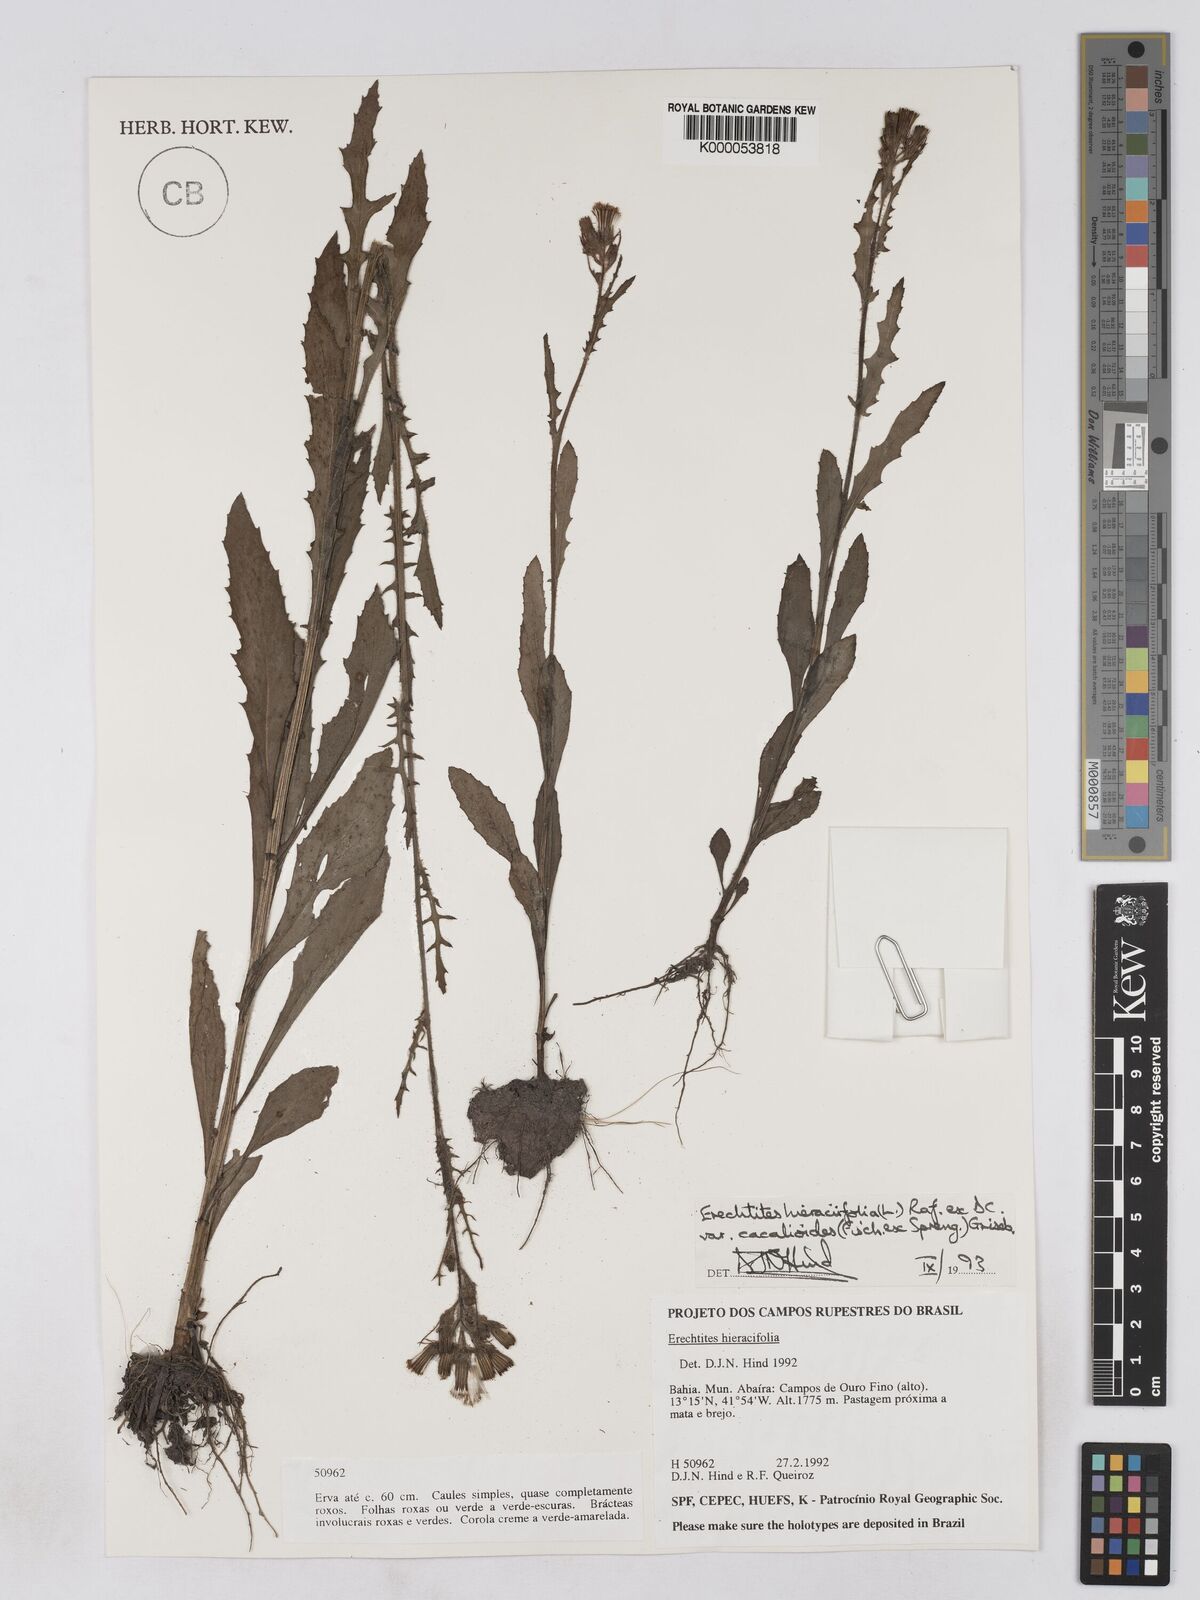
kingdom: Plantae
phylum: Tracheophyta
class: Magnoliopsida
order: Asterales
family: Asteraceae
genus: Erechtites
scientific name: Erechtites hieraciifolius
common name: American burnweed
